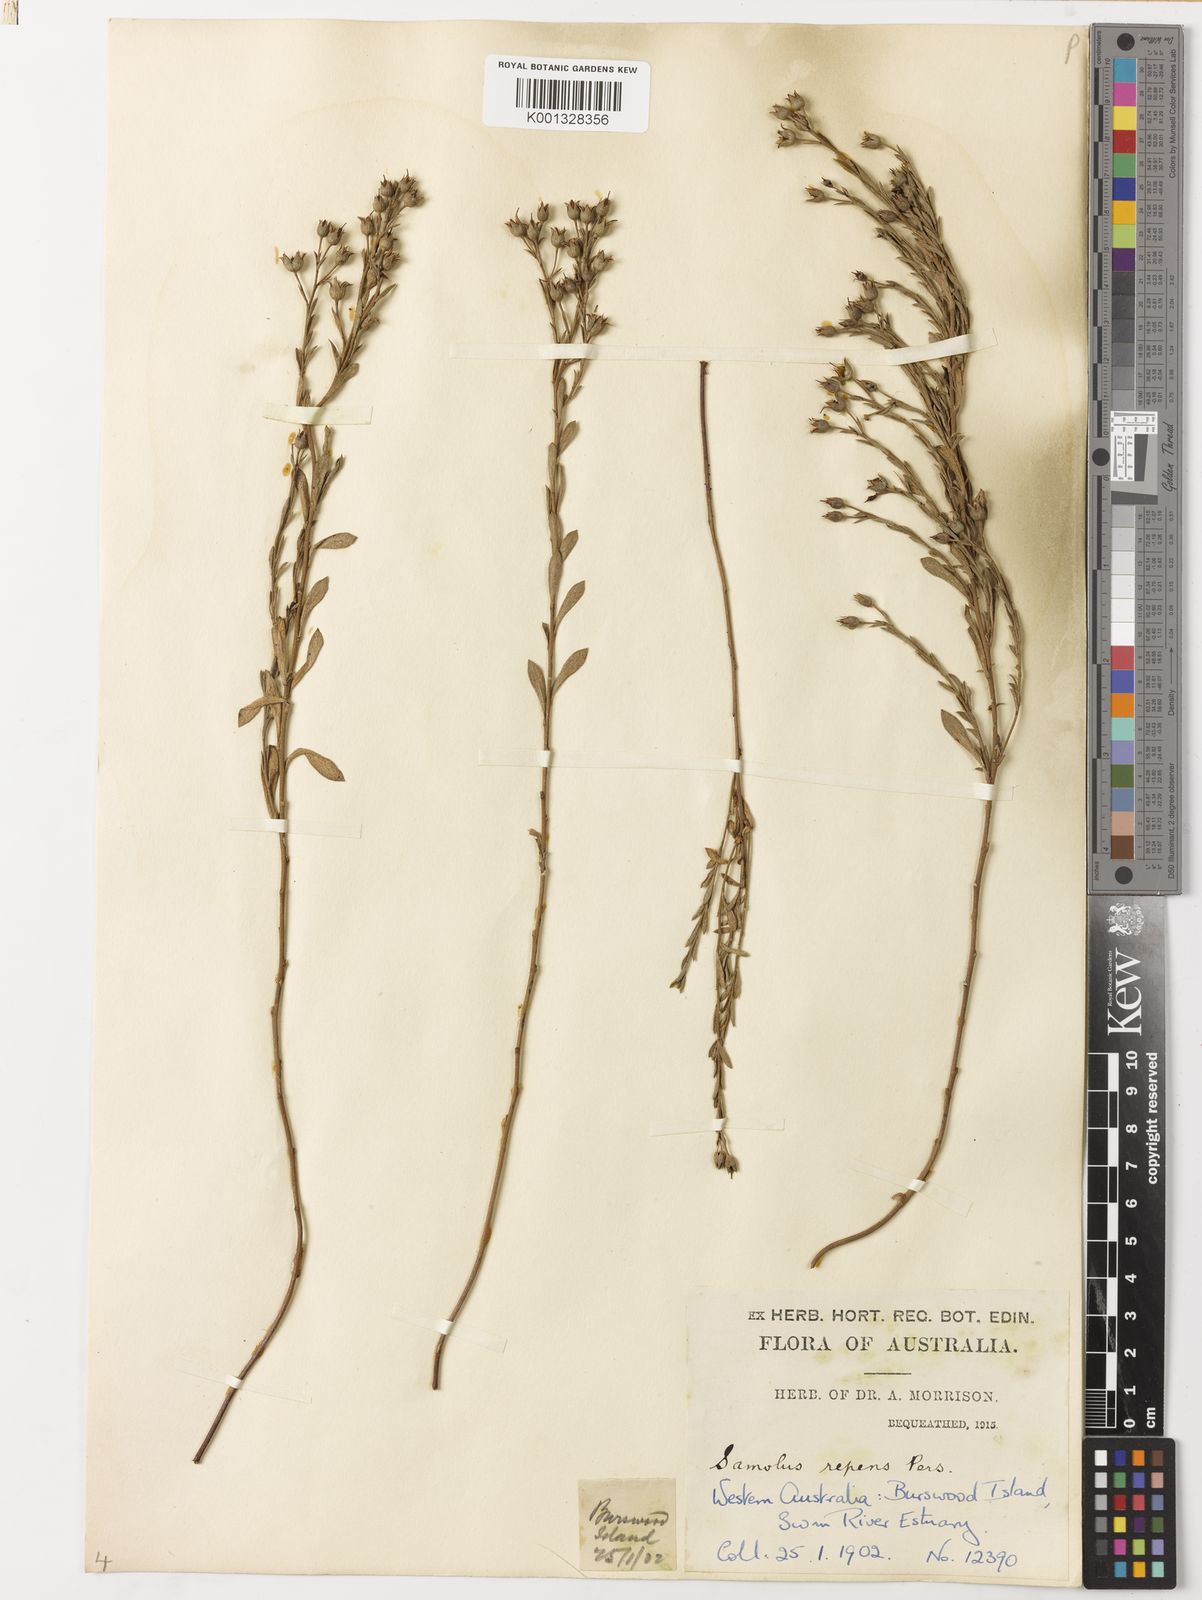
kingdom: Plantae
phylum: Tracheophyta
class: Magnoliopsida
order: Ericales
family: Primulaceae
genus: Samolus
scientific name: Samolus repens
